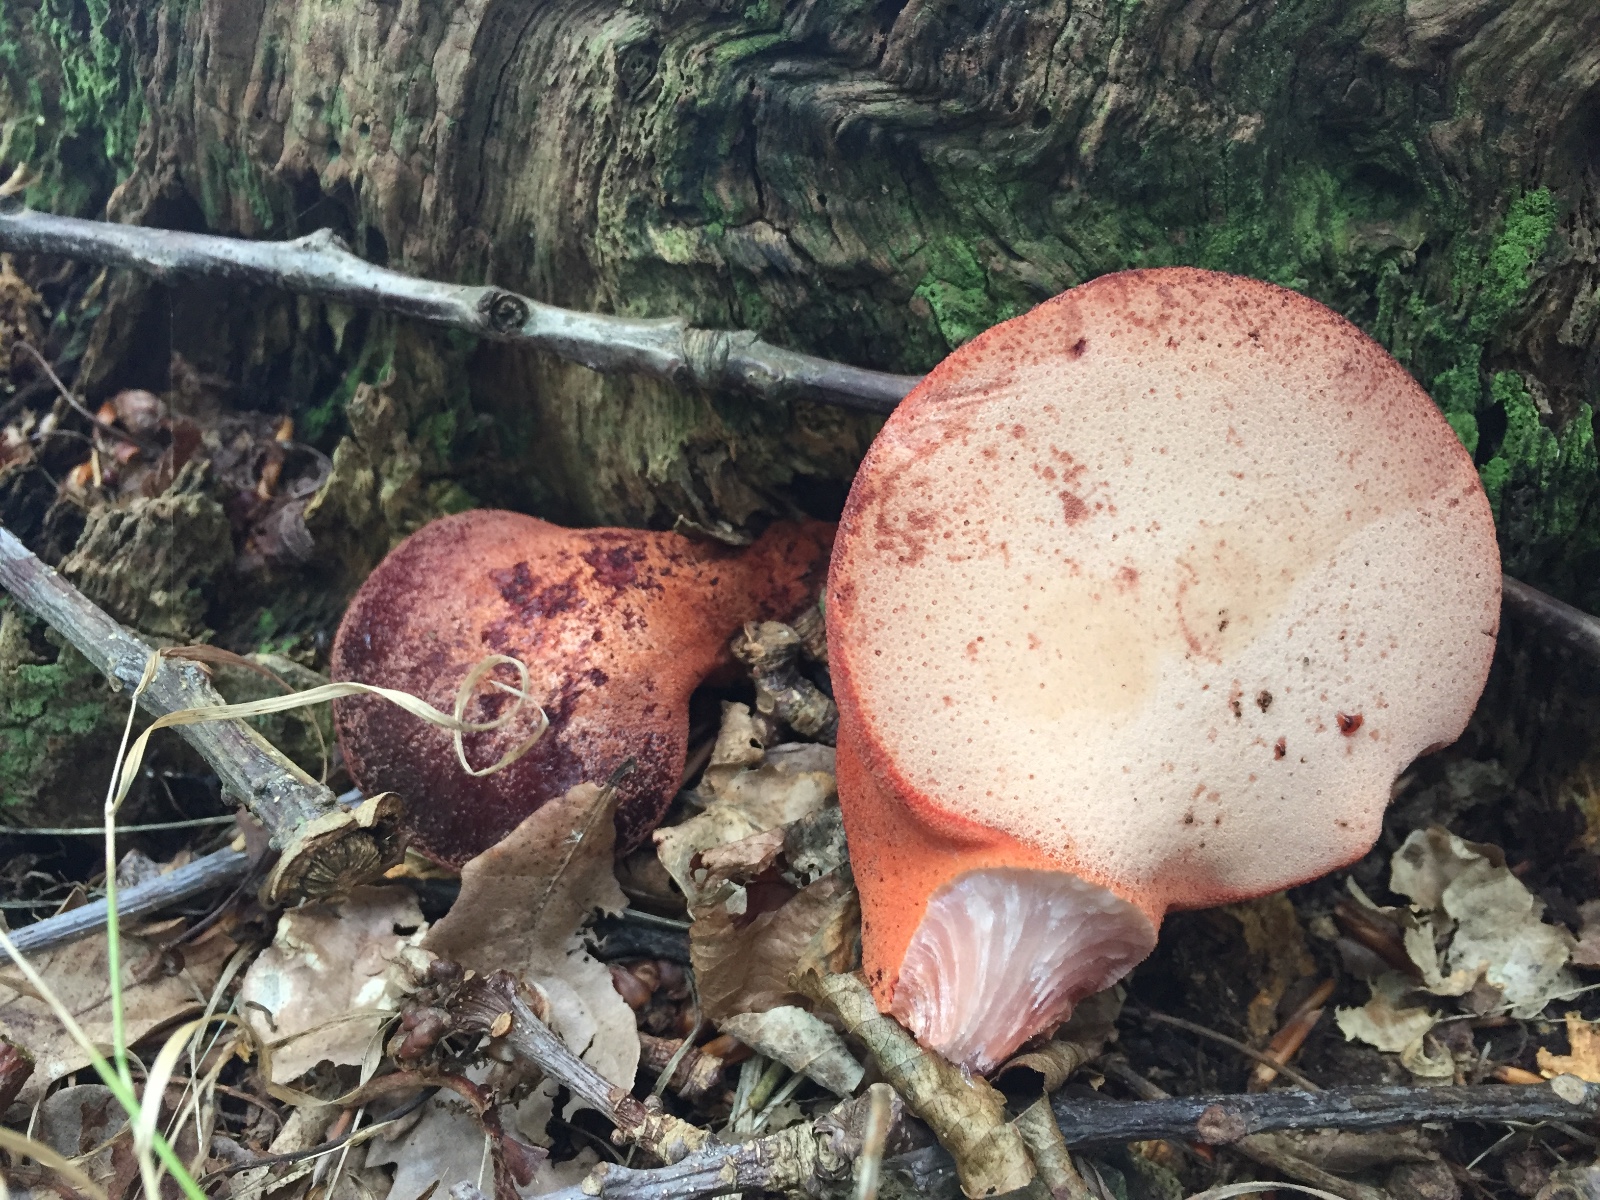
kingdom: Fungi
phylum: Basidiomycota
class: Agaricomycetes
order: Agaricales
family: Fistulinaceae
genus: Fistulina
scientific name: Fistulina hepatica
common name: oksetunge
